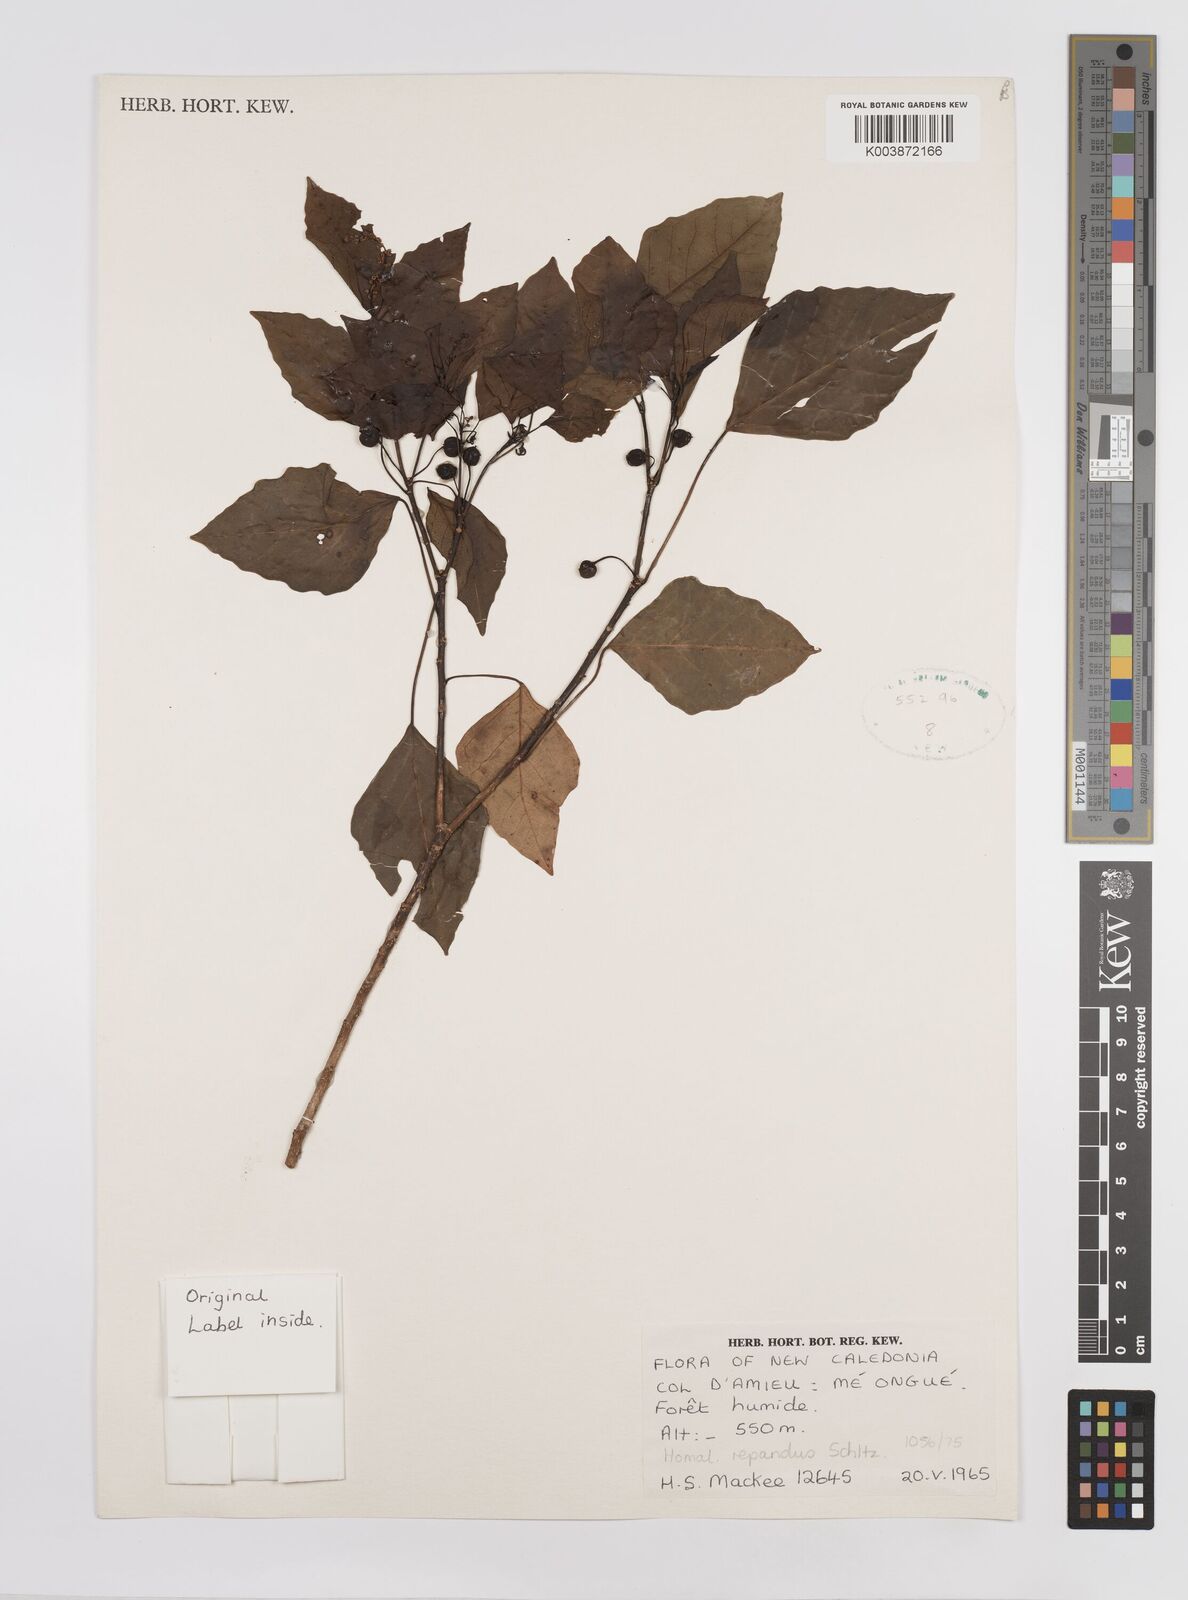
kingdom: Plantae
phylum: Tracheophyta
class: Magnoliopsida
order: Malpighiales
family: Euphorbiaceae
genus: Homalanthus
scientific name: Homalanthus repandus
